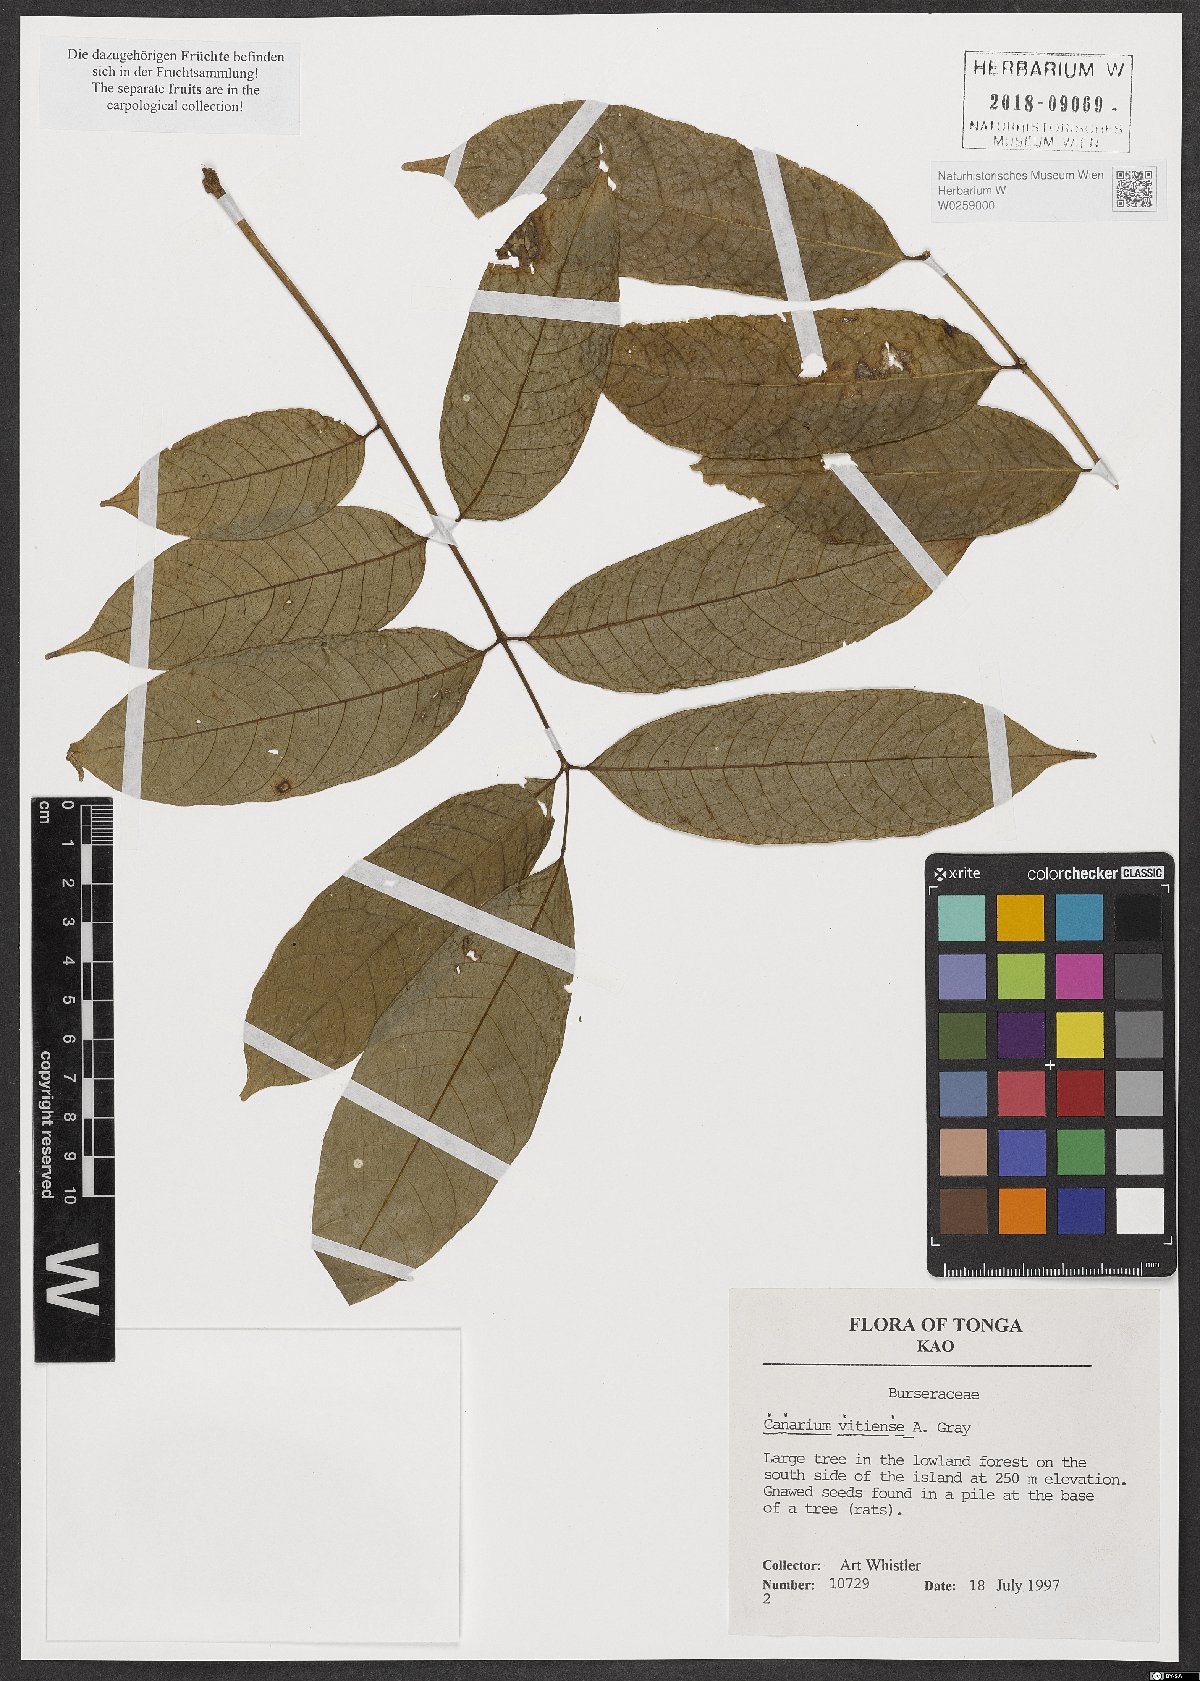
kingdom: Plantae
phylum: Tracheophyta
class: Magnoliopsida
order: Sapindales
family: Burseraceae
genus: Canarium
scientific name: Canarium vitiense
